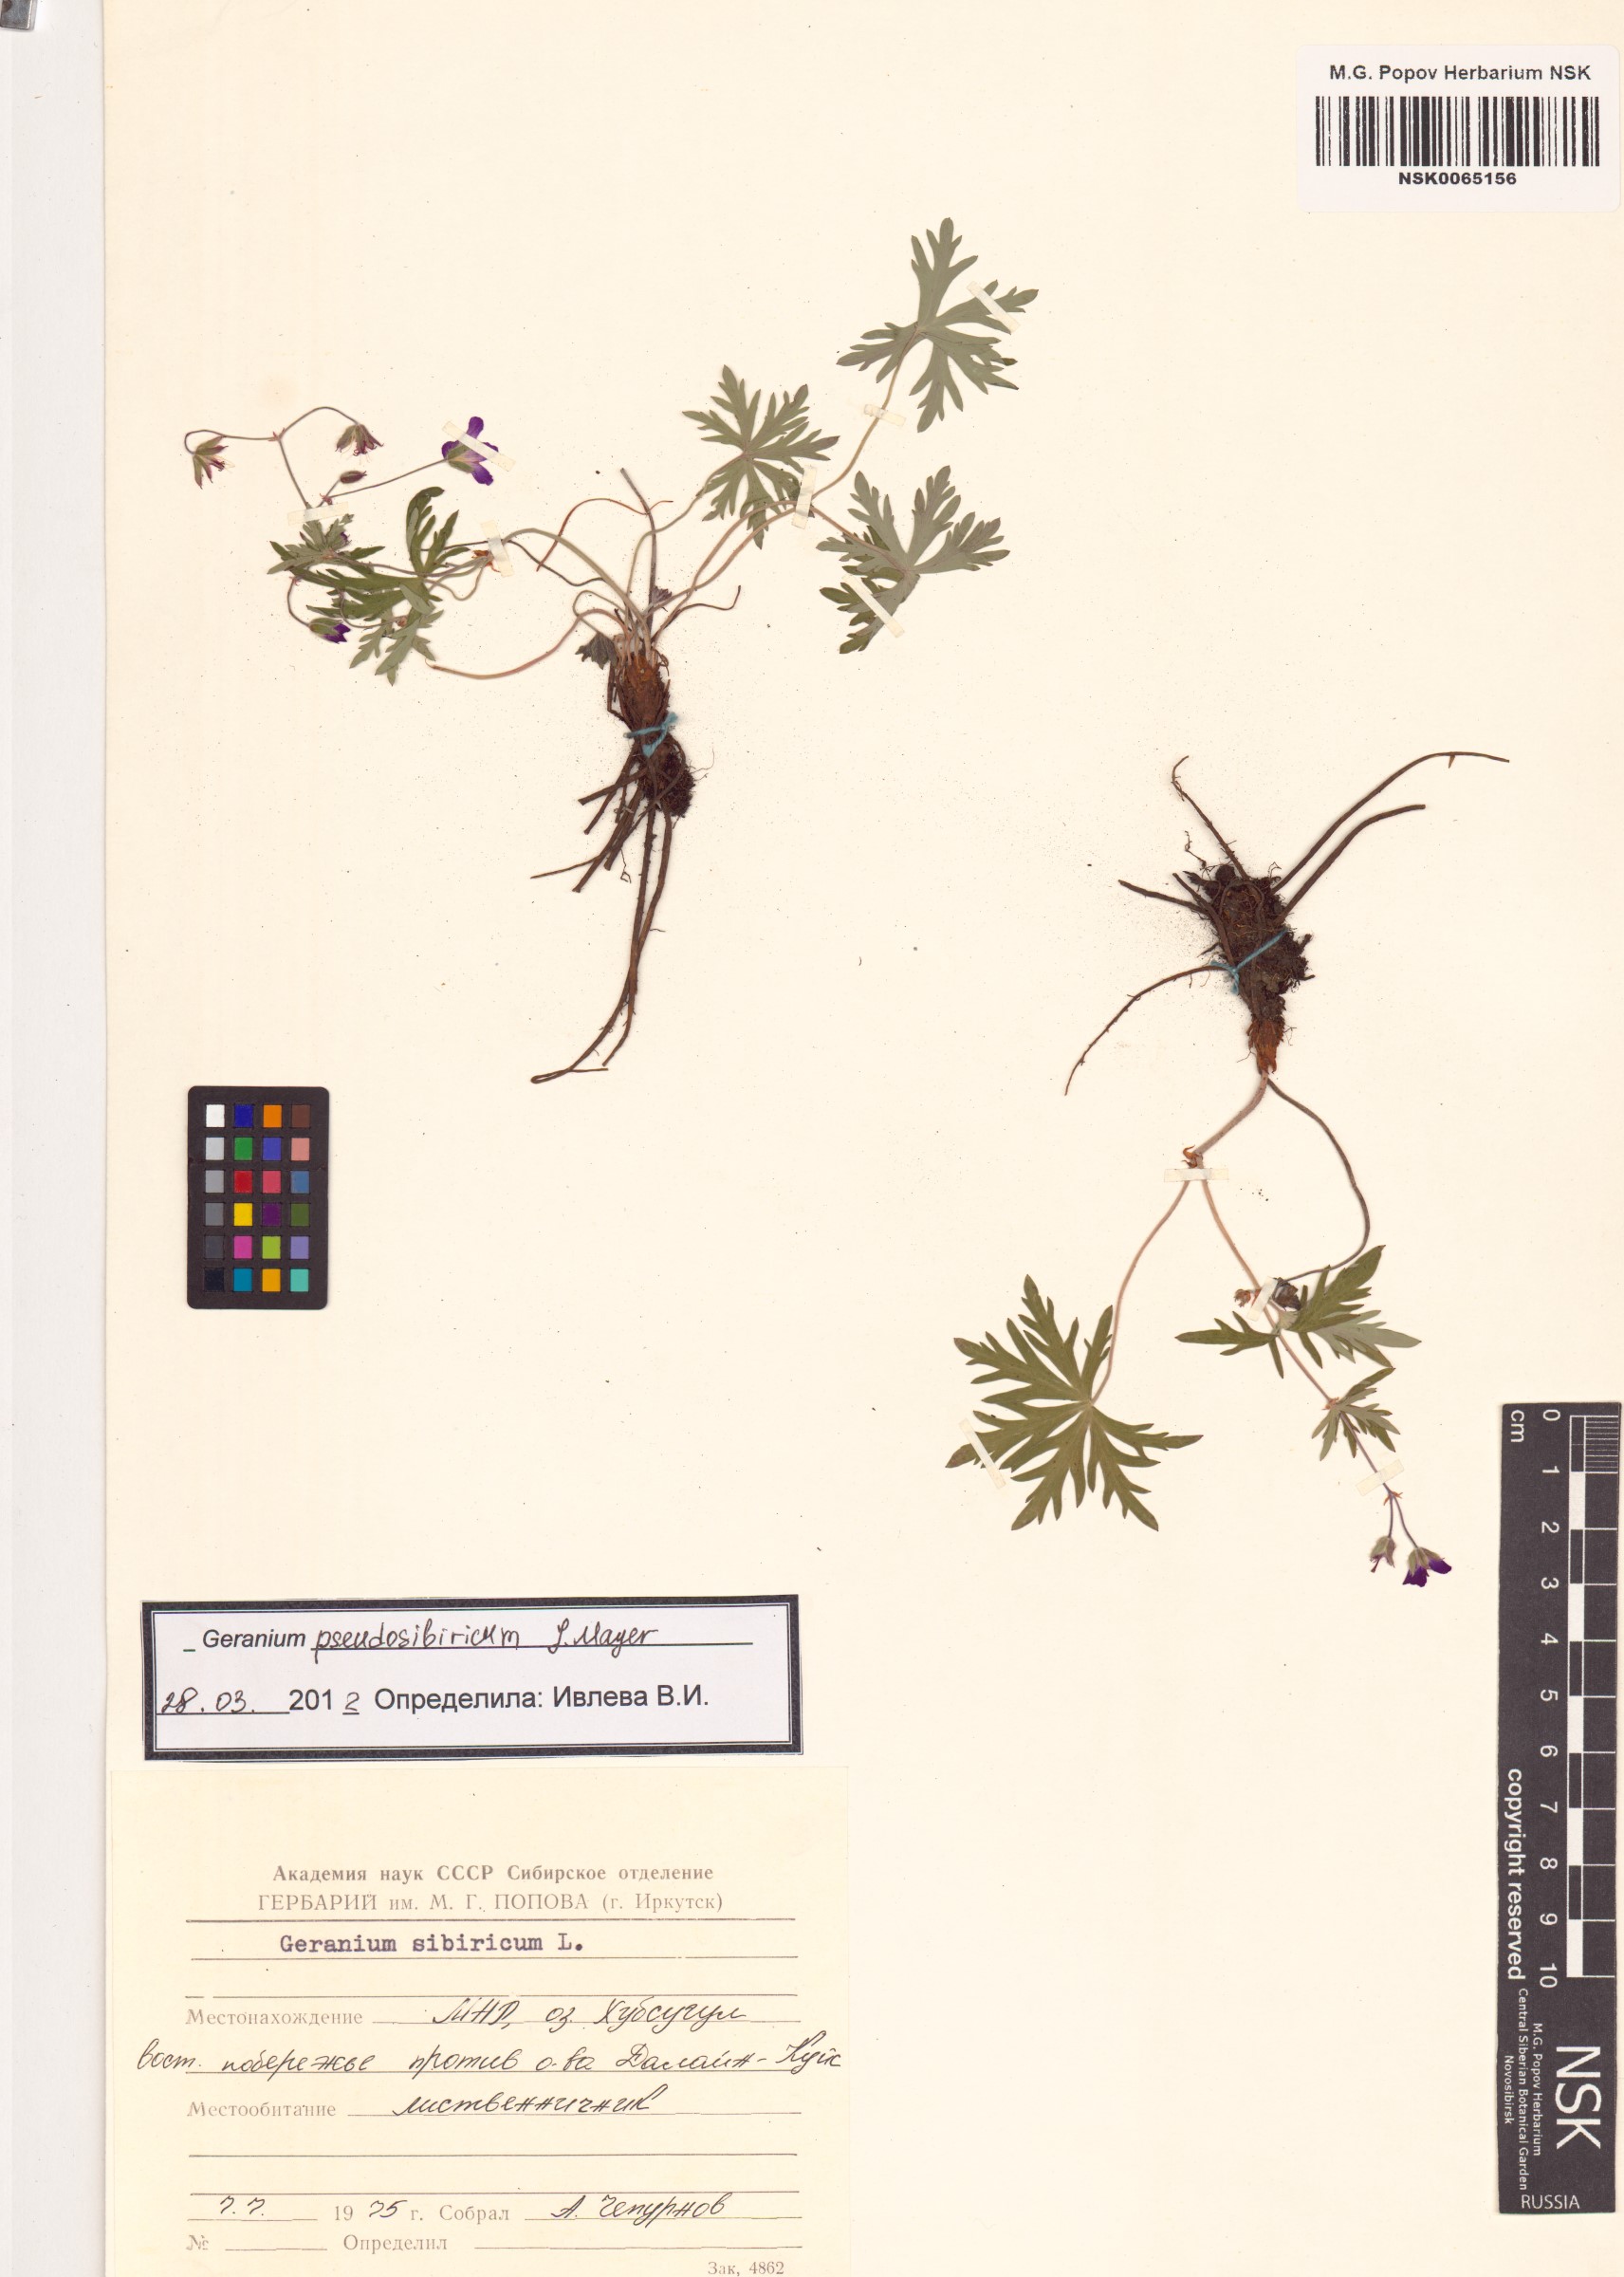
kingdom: Plantae
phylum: Tracheophyta
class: Magnoliopsida
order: Geraniales
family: Geraniaceae
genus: Geranium
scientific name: Geranium pseudosibiricum
